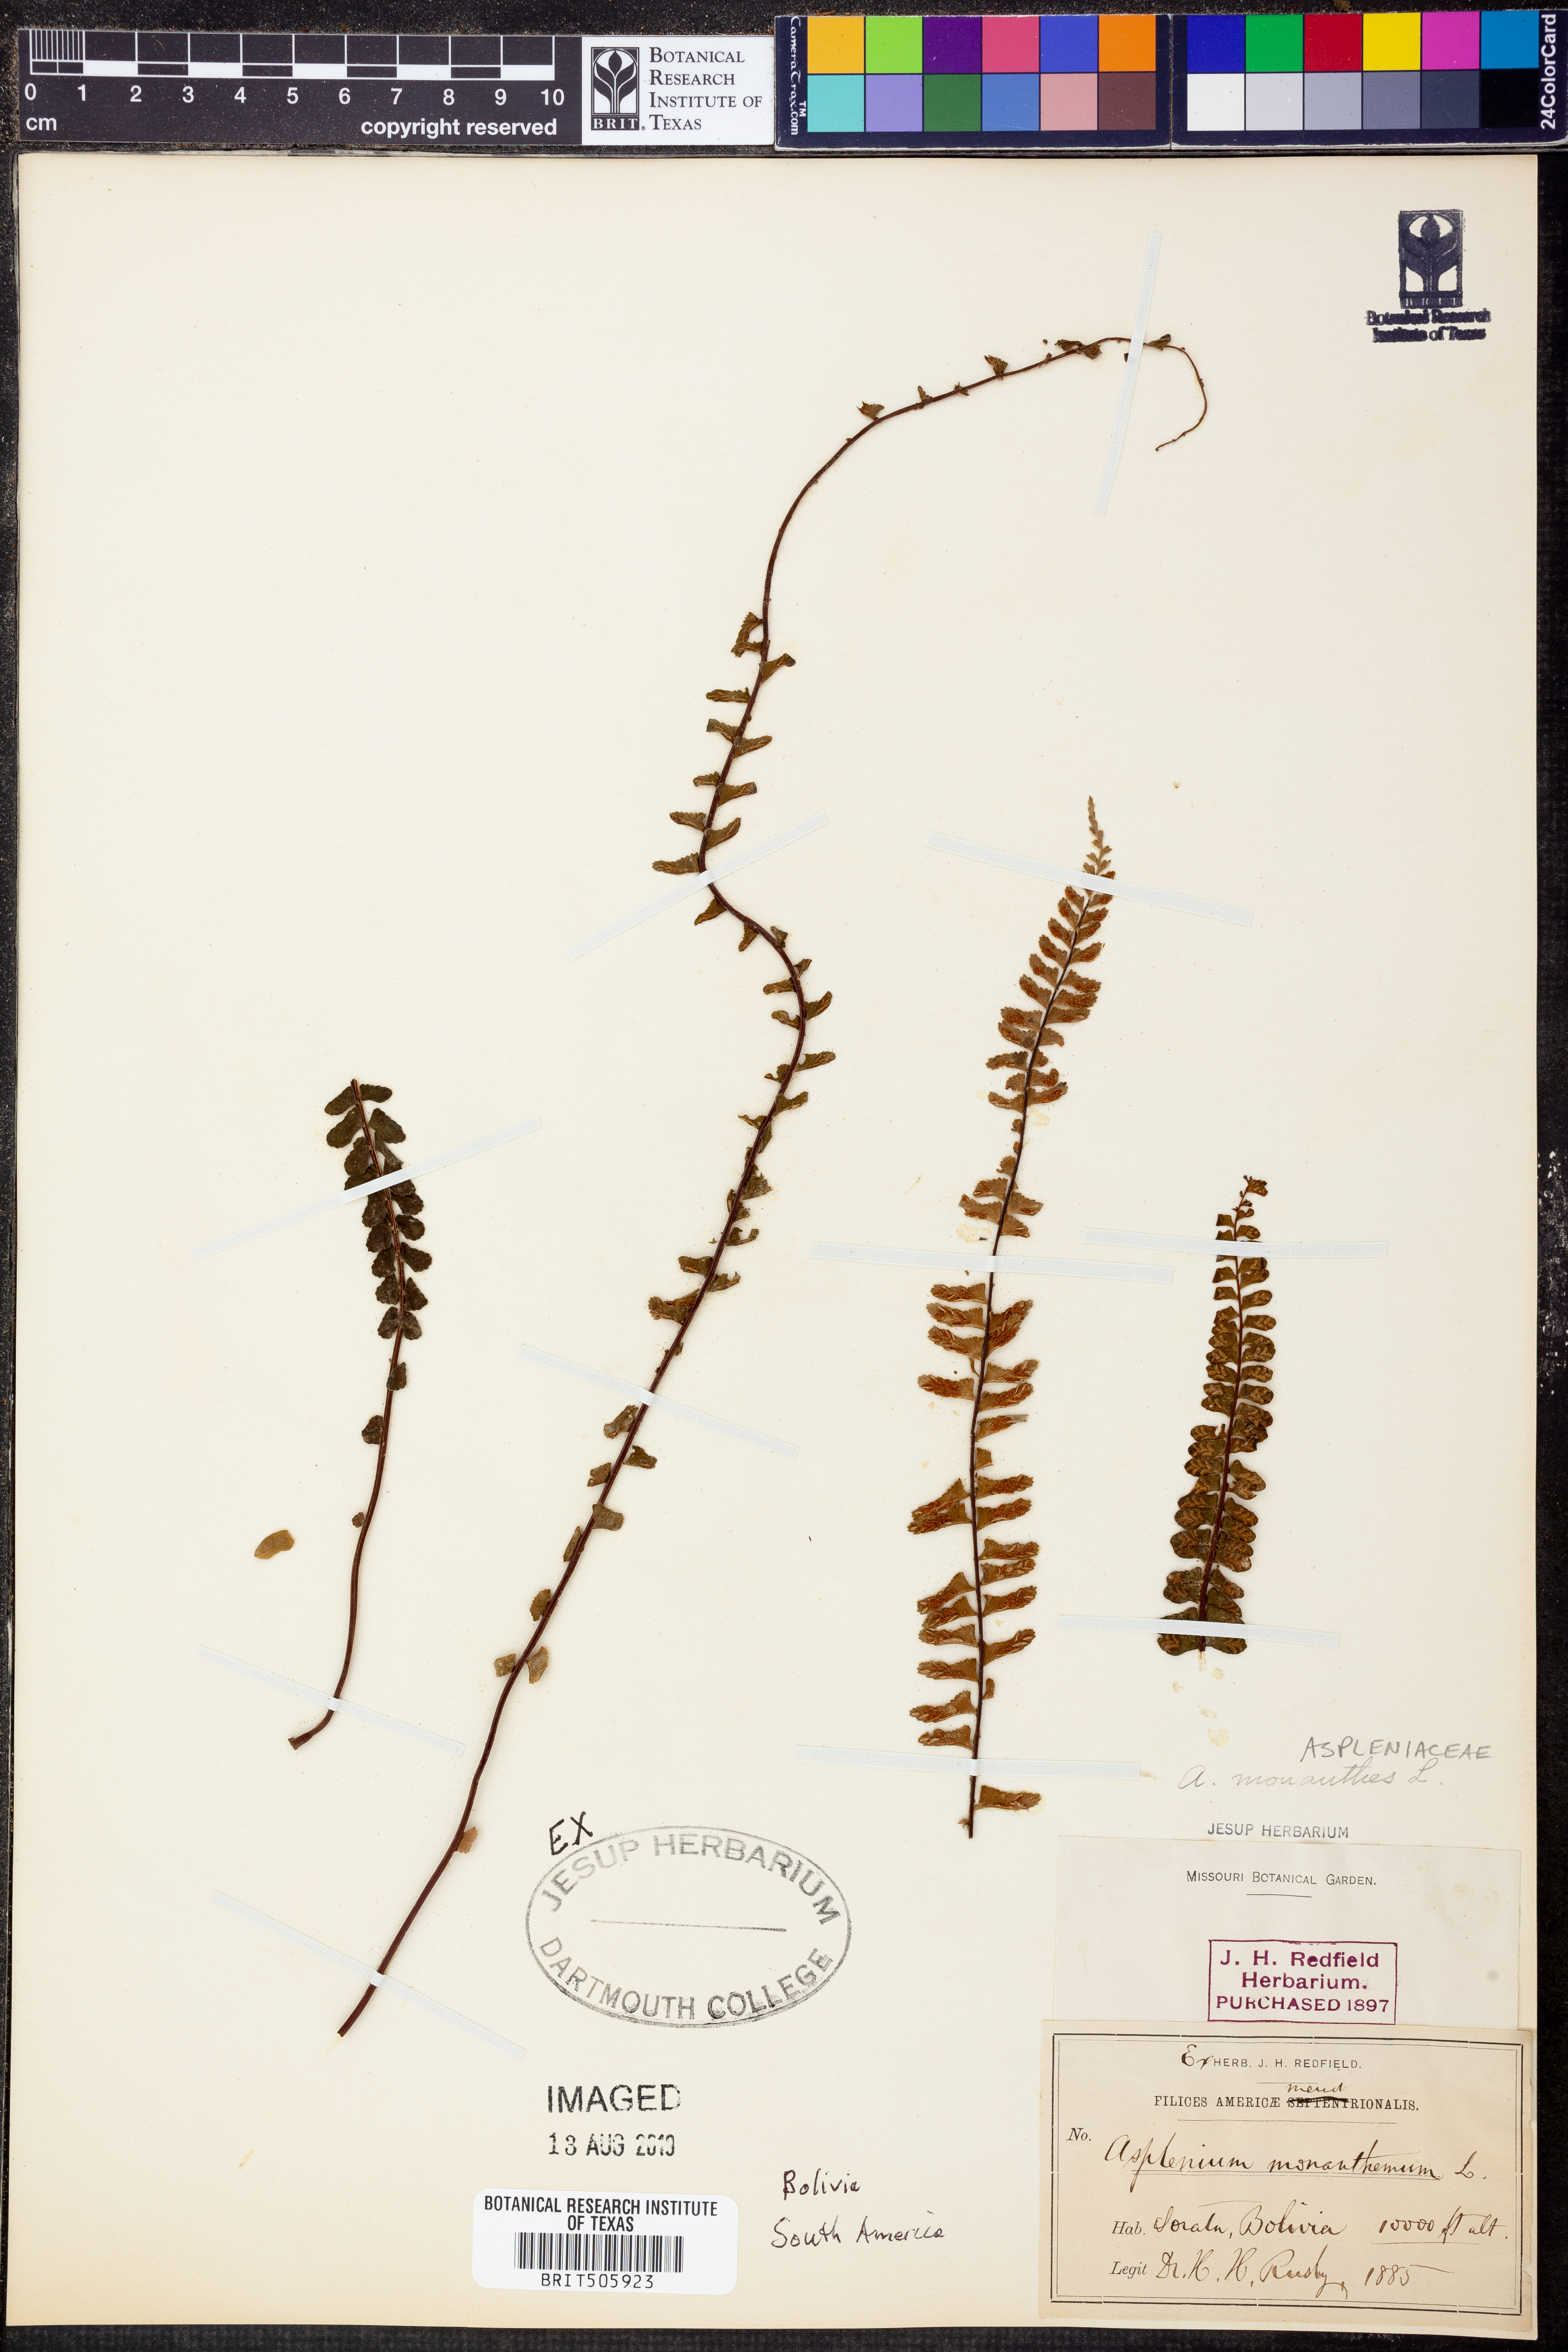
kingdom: Plantae
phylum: Tracheophyta
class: Polypodiopsida
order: Polypodiales
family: Aspleniaceae
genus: Asplenium
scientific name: Asplenium monanthes
